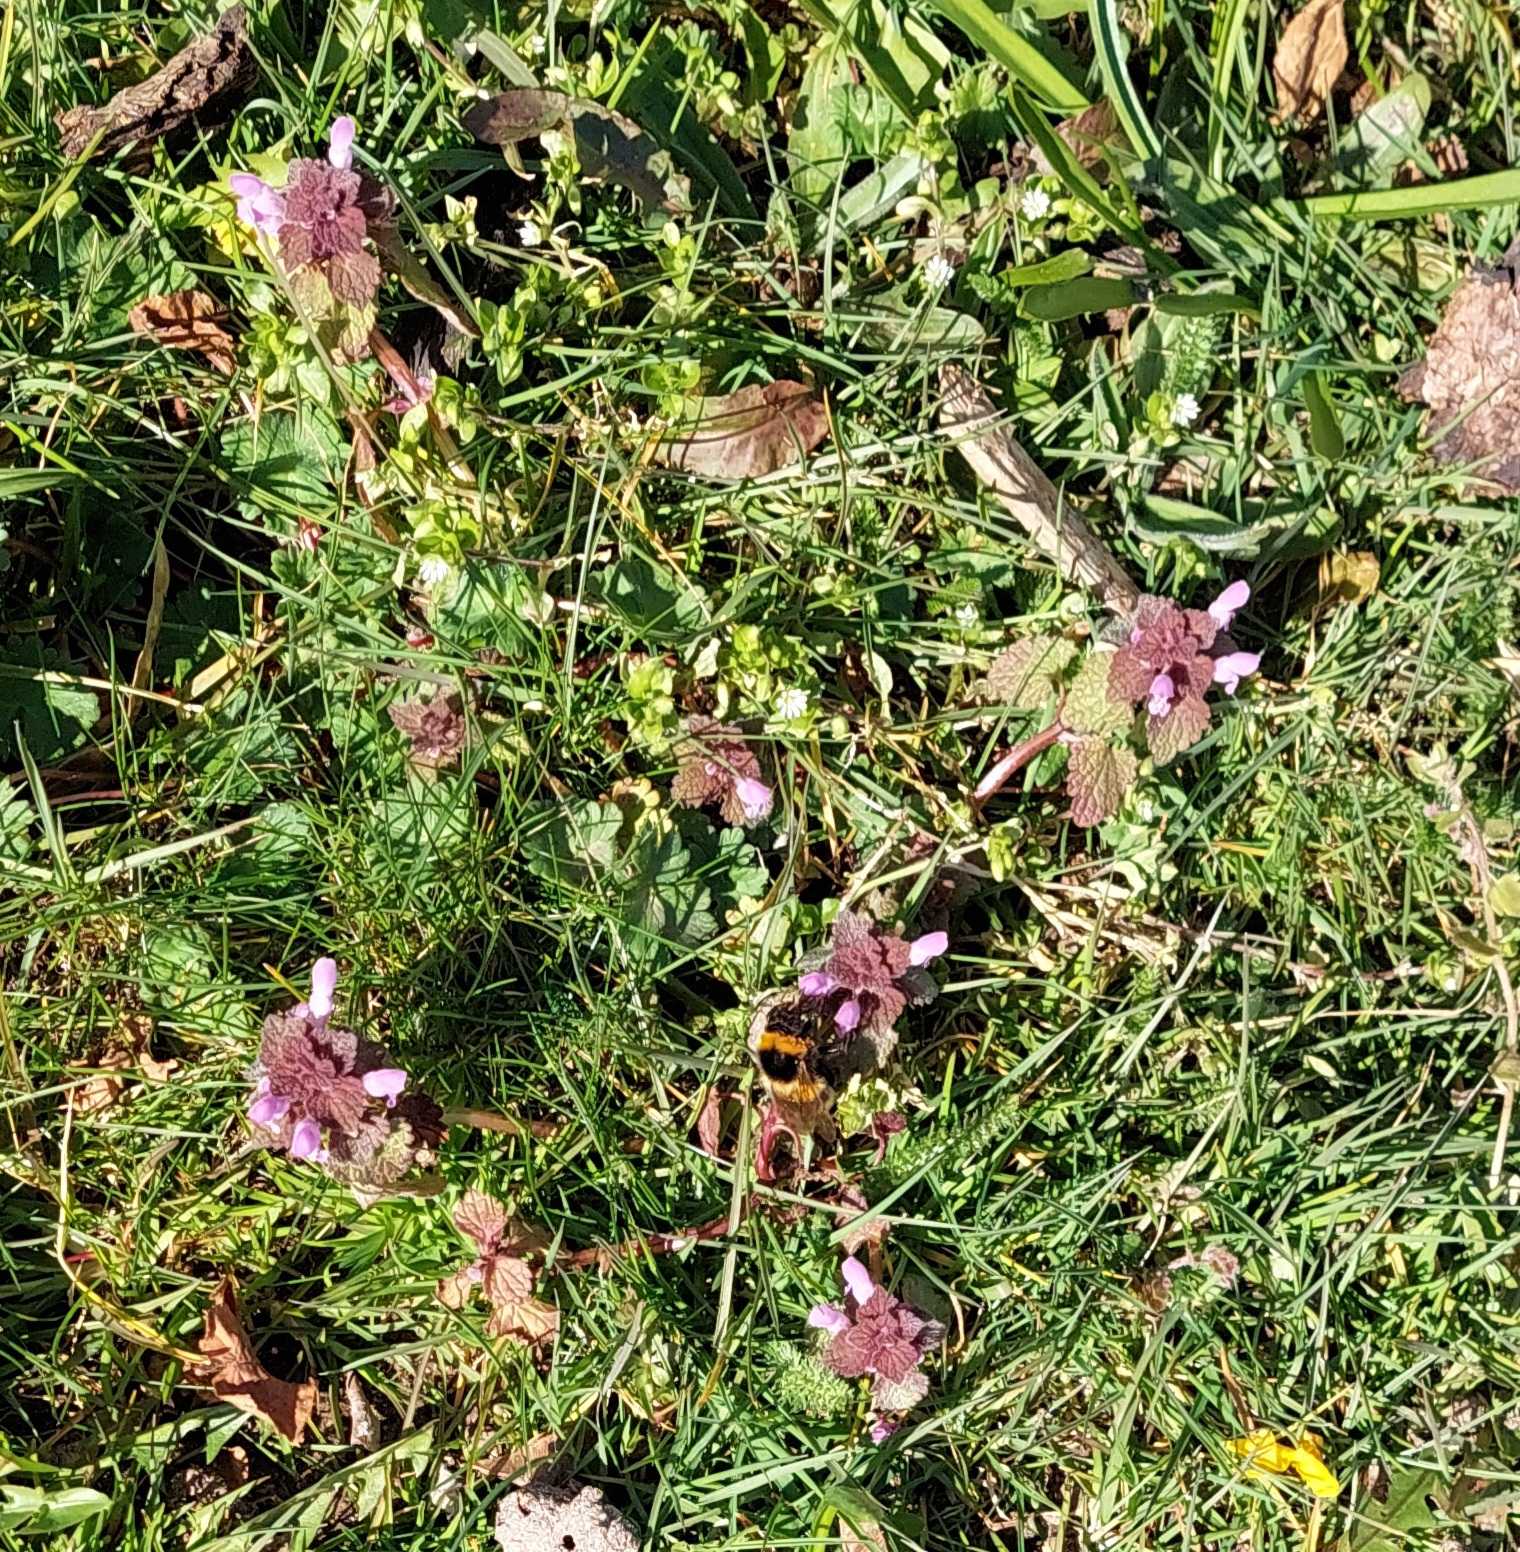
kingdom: Plantae
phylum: Tracheophyta
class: Magnoliopsida
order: Lamiales
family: Lamiaceae
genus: Lamium
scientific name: Lamium purpureum
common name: Rød tvetand
